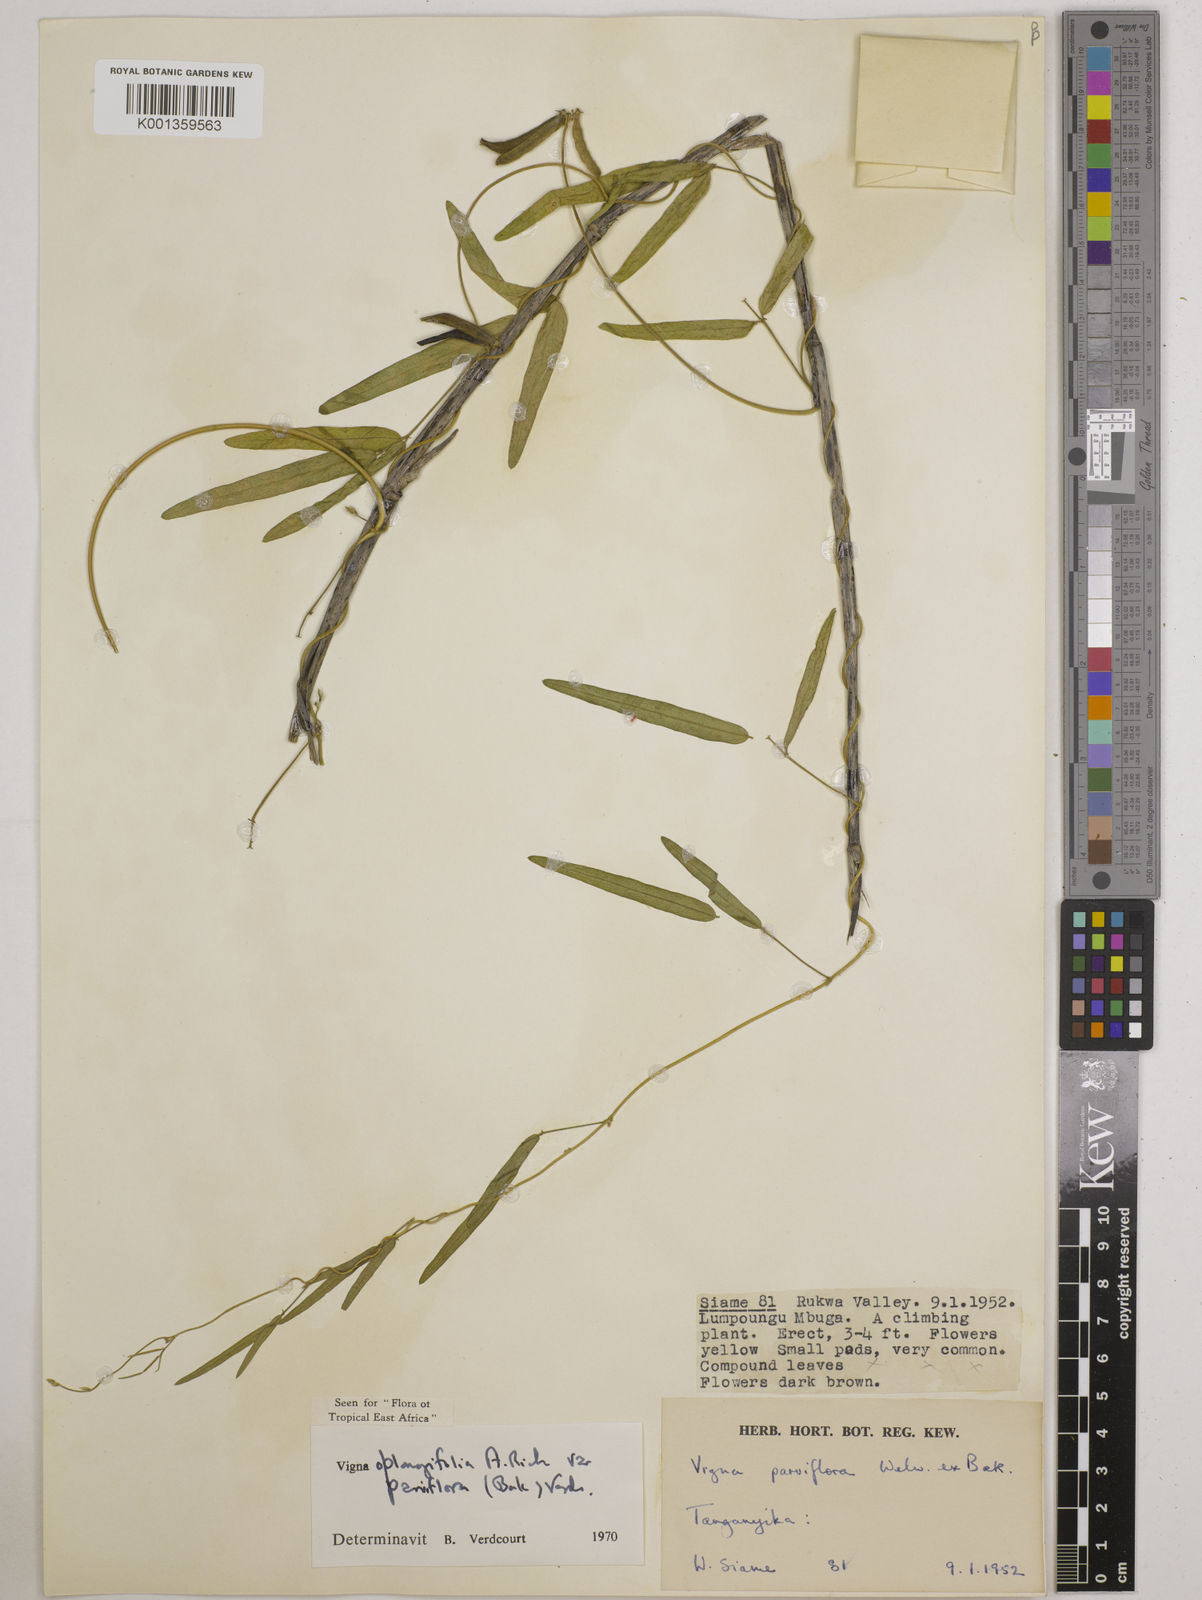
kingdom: Plantae
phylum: Tracheophyta
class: Magnoliopsida
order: Fabales
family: Fabaceae
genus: Vigna
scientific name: Vigna
